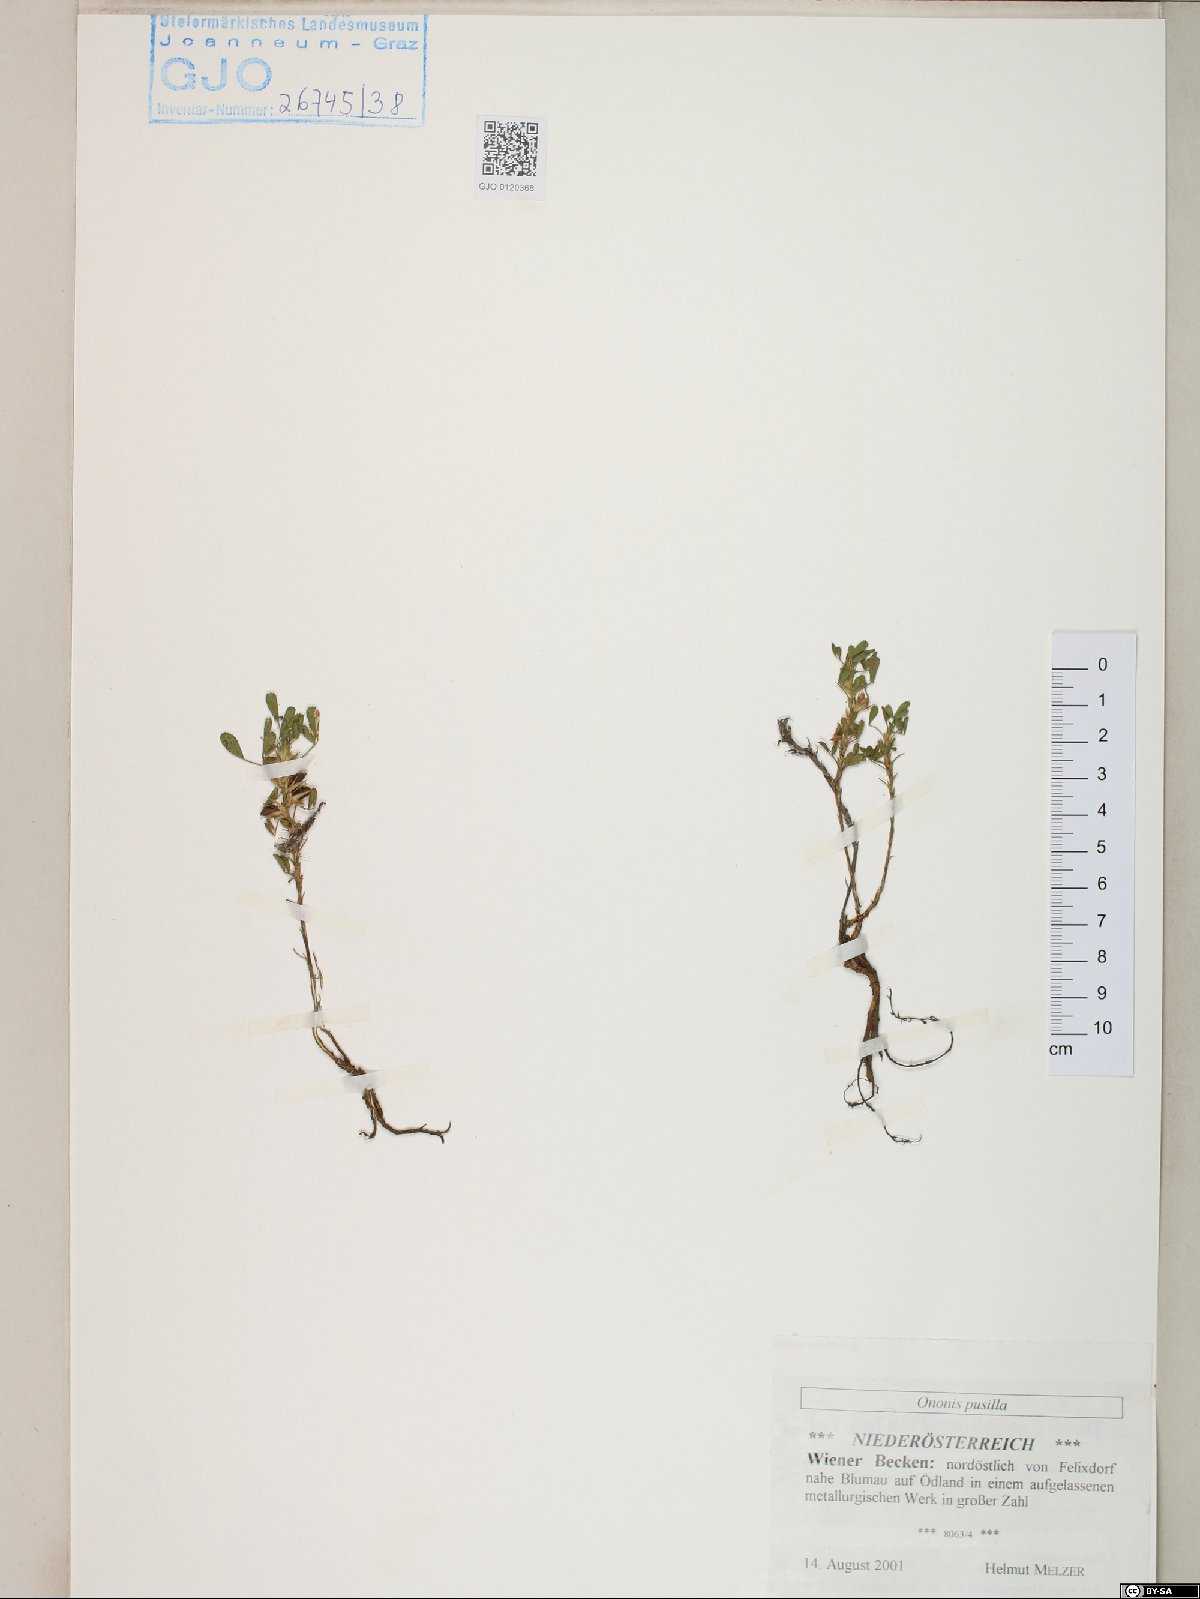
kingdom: Plantae
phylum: Tracheophyta
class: Magnoliopsida
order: Fabales
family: Fabaceae
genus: Ononis
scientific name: Ononis pusilla
